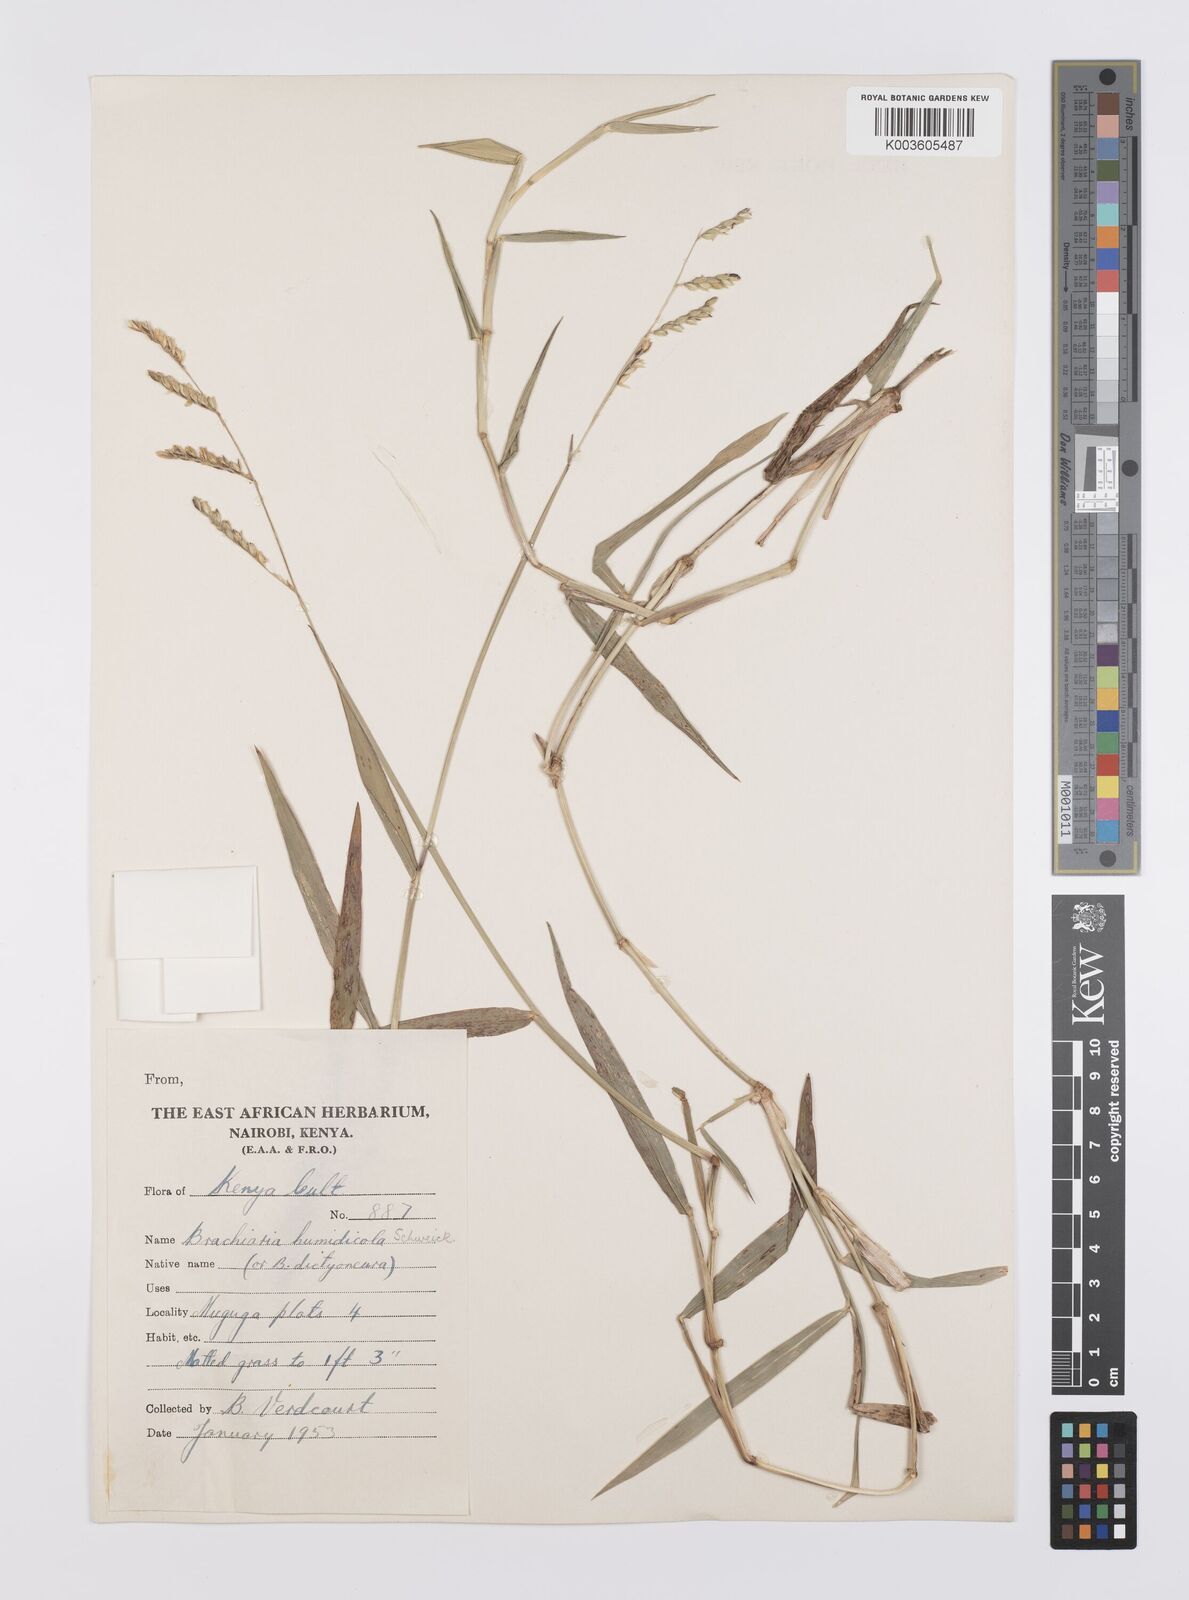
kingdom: Plantae
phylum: Tracheophyta
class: Liliopsida
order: Poales
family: Poaceae
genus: Urochloa
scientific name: Urochloa dictyoneura
